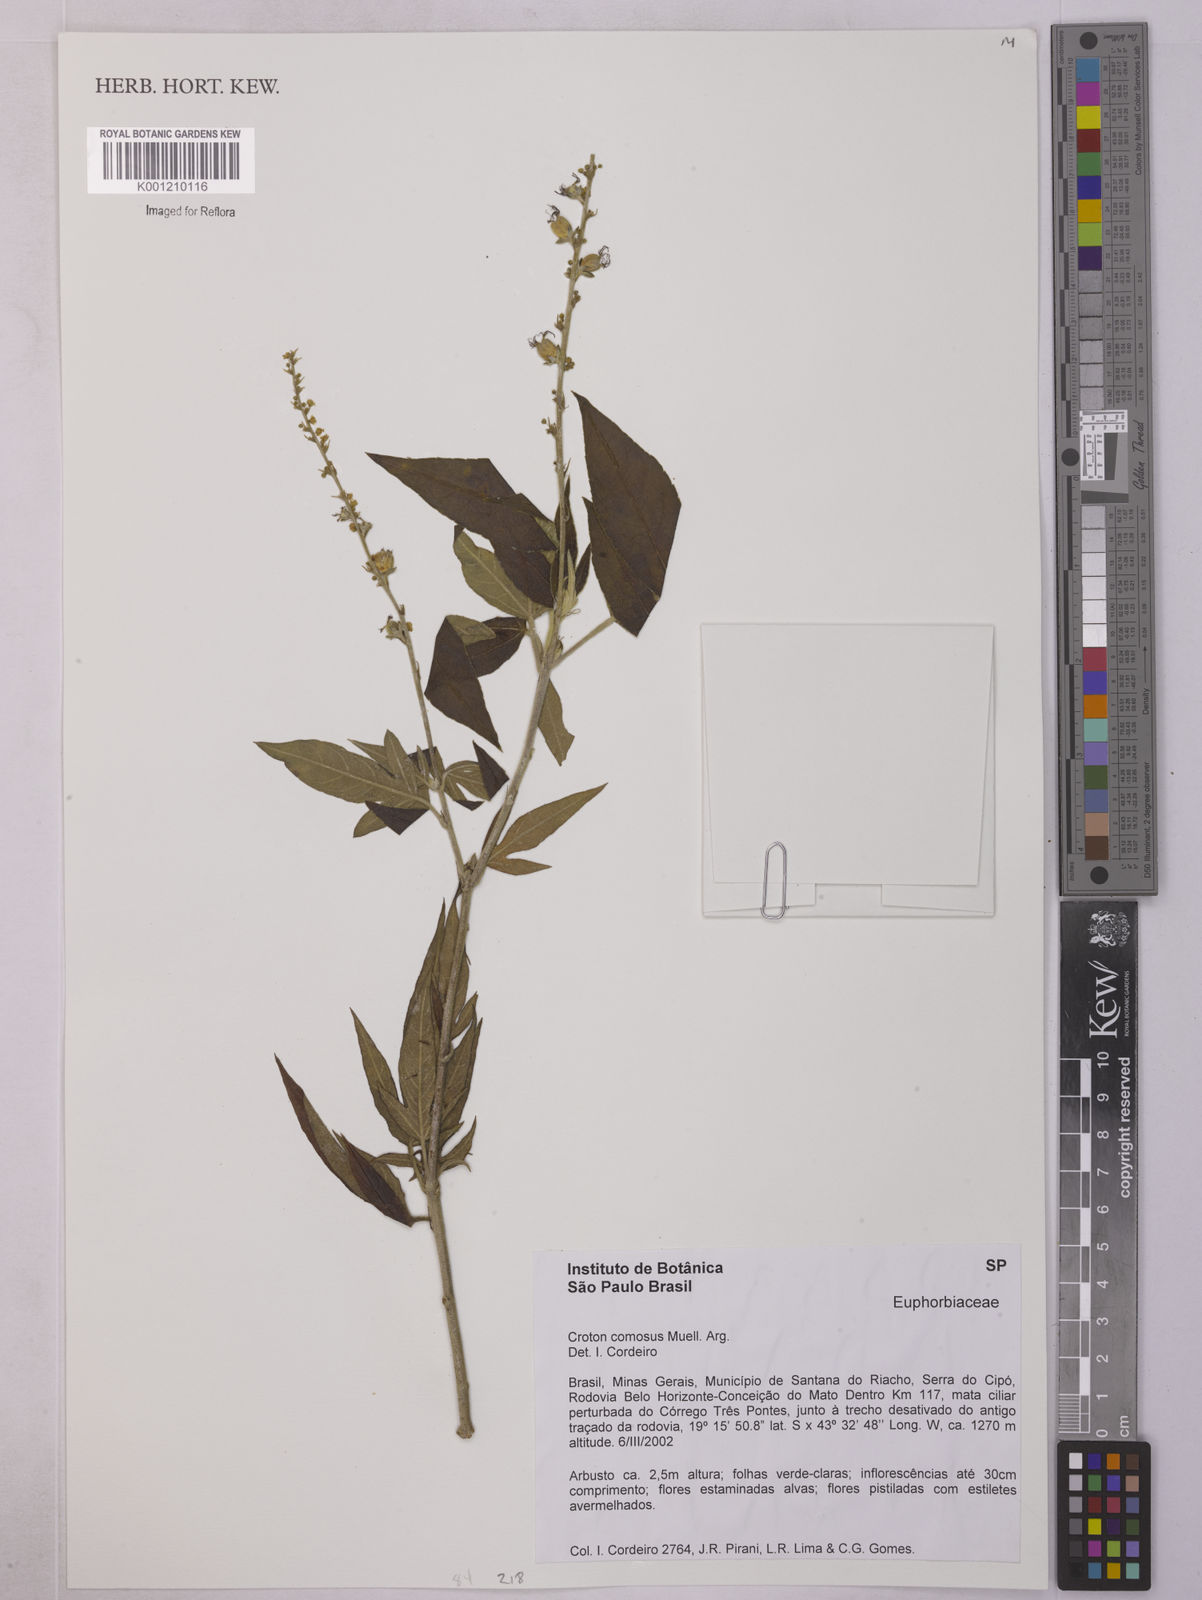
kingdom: Plantae
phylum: Tracheophyta
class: Magnoliopsida
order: Malpighiales
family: Euphorbiaceae
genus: Astraea
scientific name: Astraea
